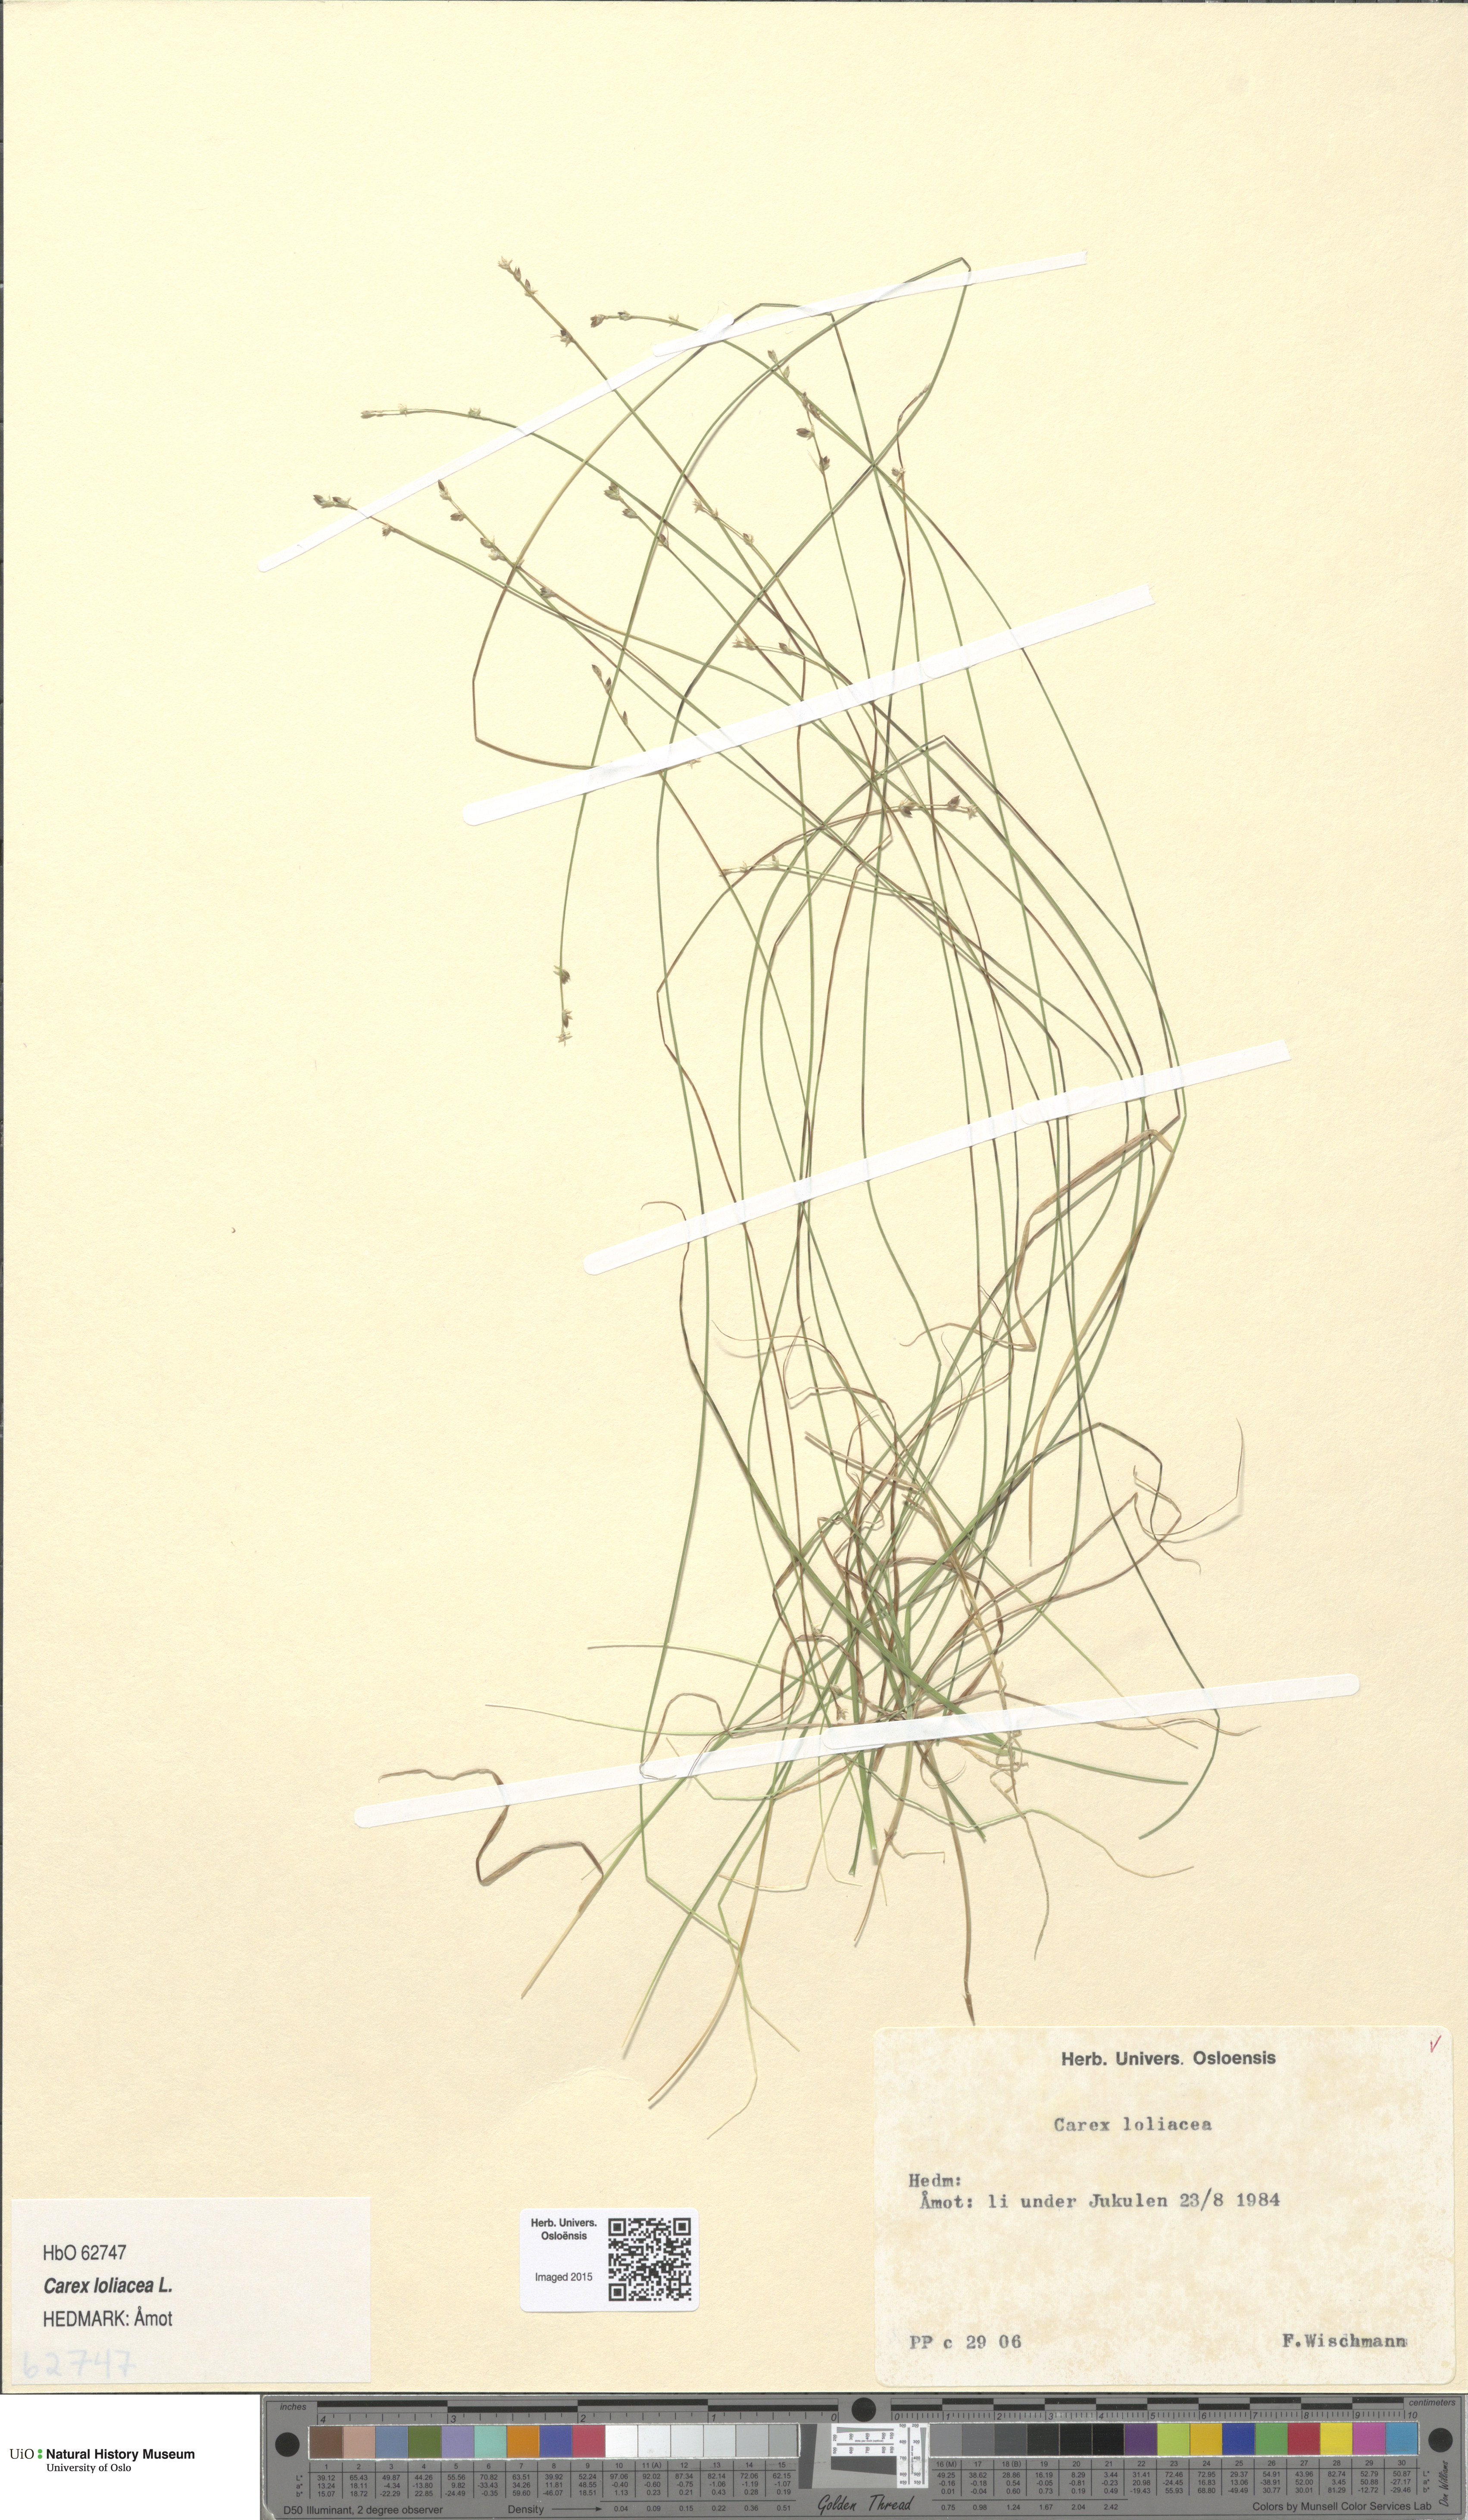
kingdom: Plantae
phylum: Tracheophyta
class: Liliopsida
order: Poales
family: Cyperaceae
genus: Carex
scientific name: Carex loliacea
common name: Ryegrass sedge
